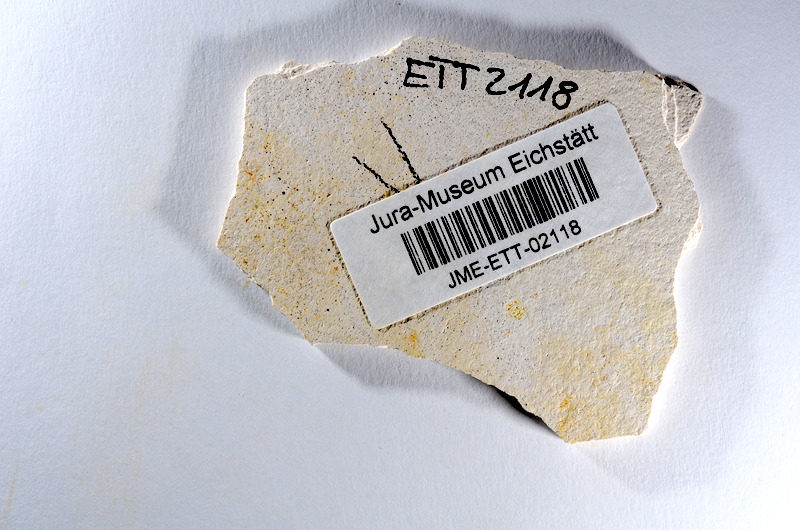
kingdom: Animalia
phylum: Chordata
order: Salmoniformes
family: Orthogonikleithridae
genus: Orthogonikleithrus
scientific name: Orthogonikleithrus hoelli
